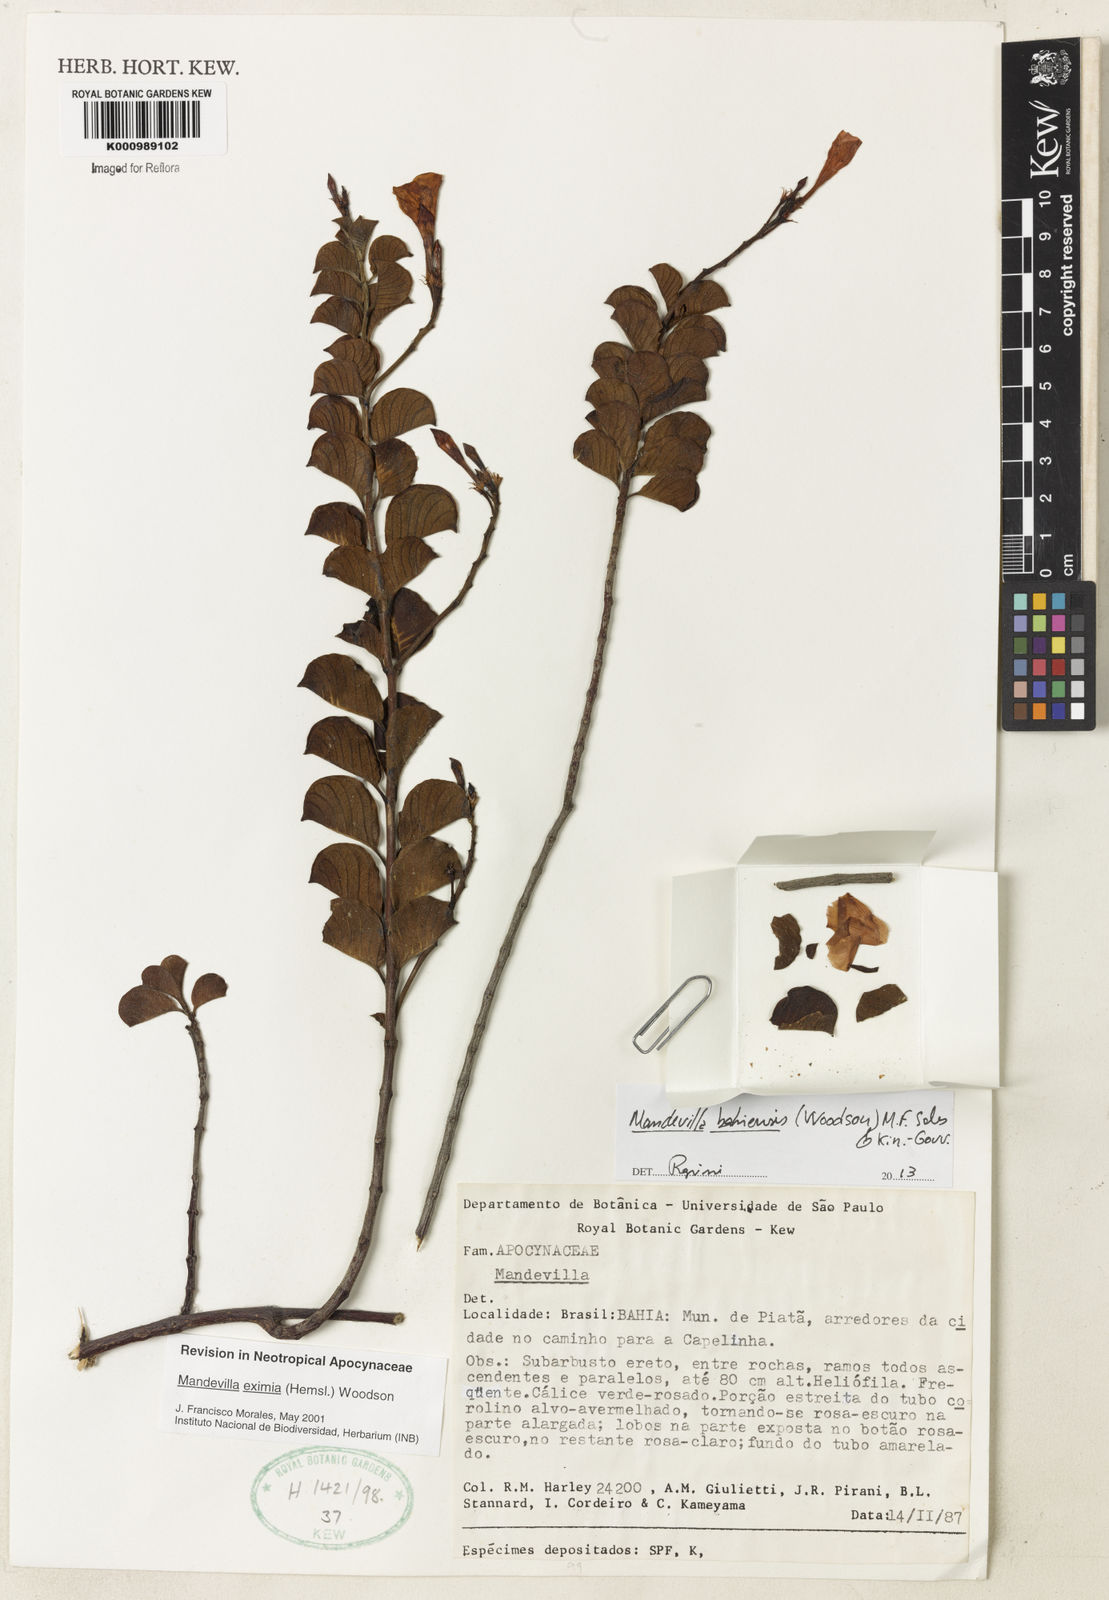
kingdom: Plantae
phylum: Tracheophyta
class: Magnoliopsida
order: Gentianales
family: Apocynaceae
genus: Mandevilla
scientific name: Mandevilla eximia
